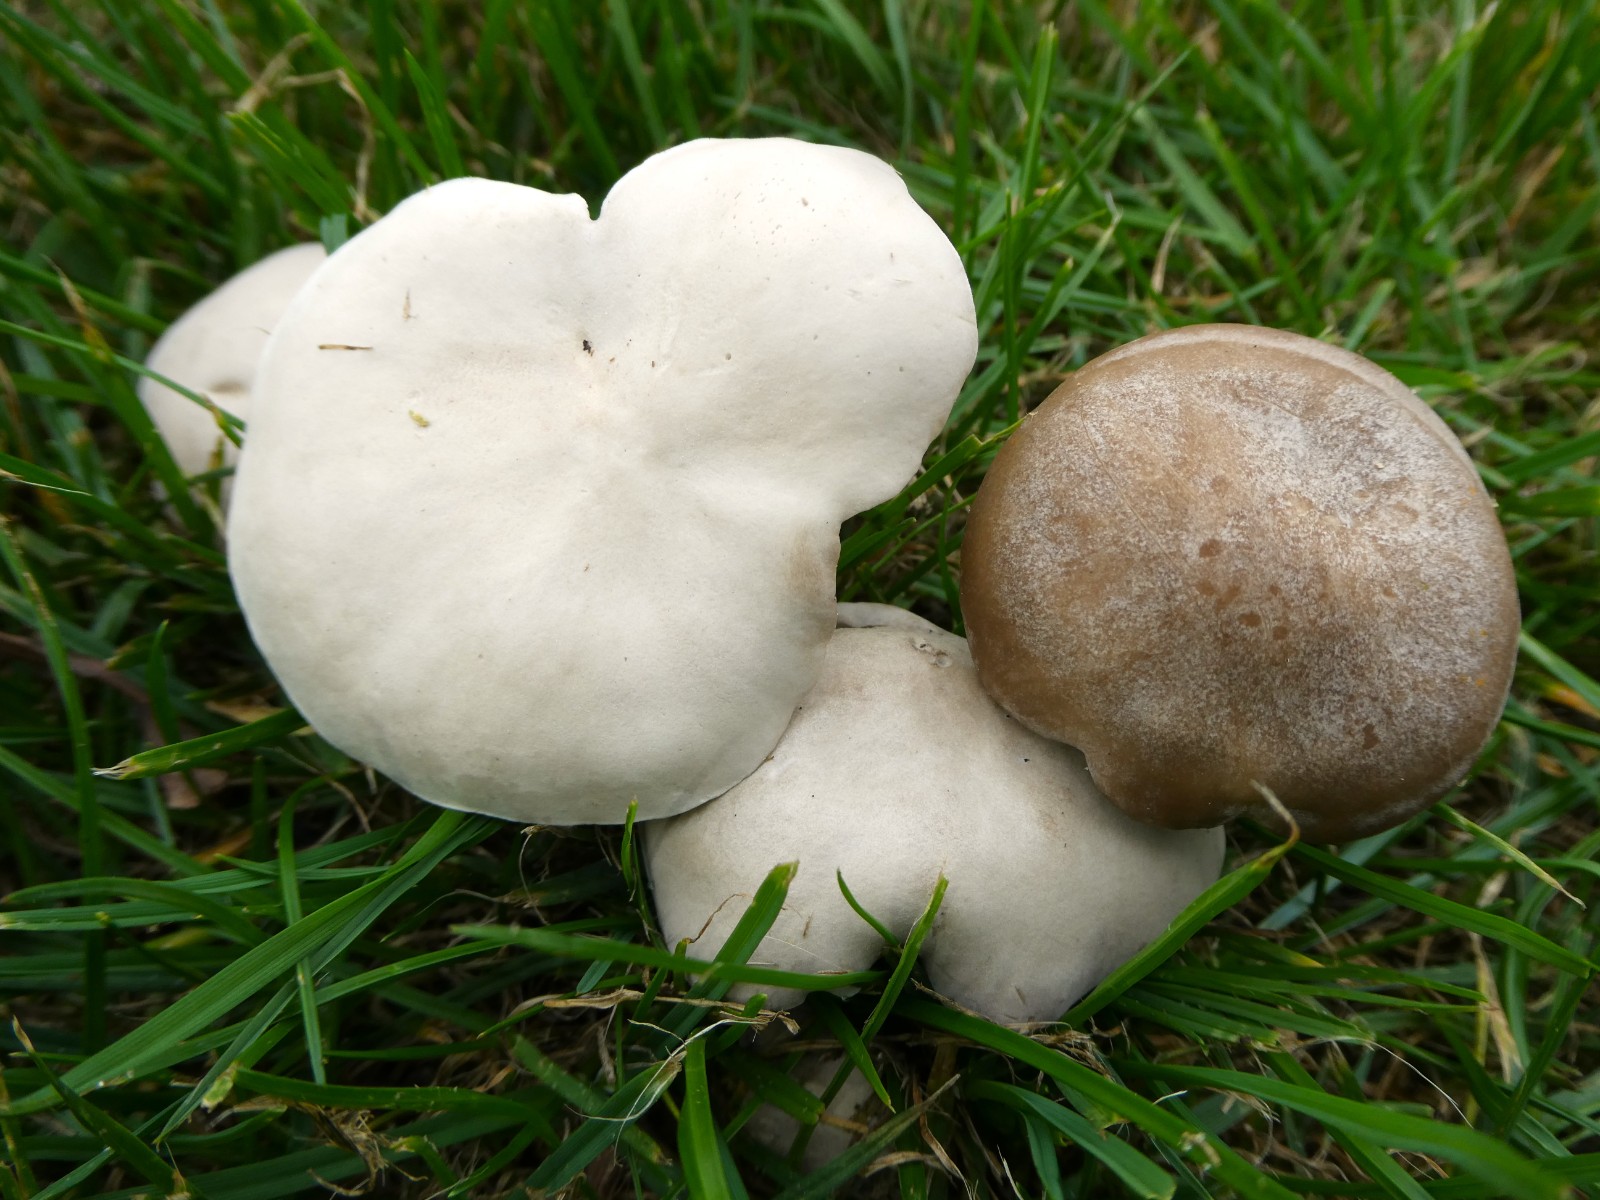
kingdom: Fungi
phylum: Basidiomycota
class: Agaricomycetes
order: Agaricales
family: Tricholomataceae
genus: Melanoleuca
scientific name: Melanoleuca
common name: munkehat
